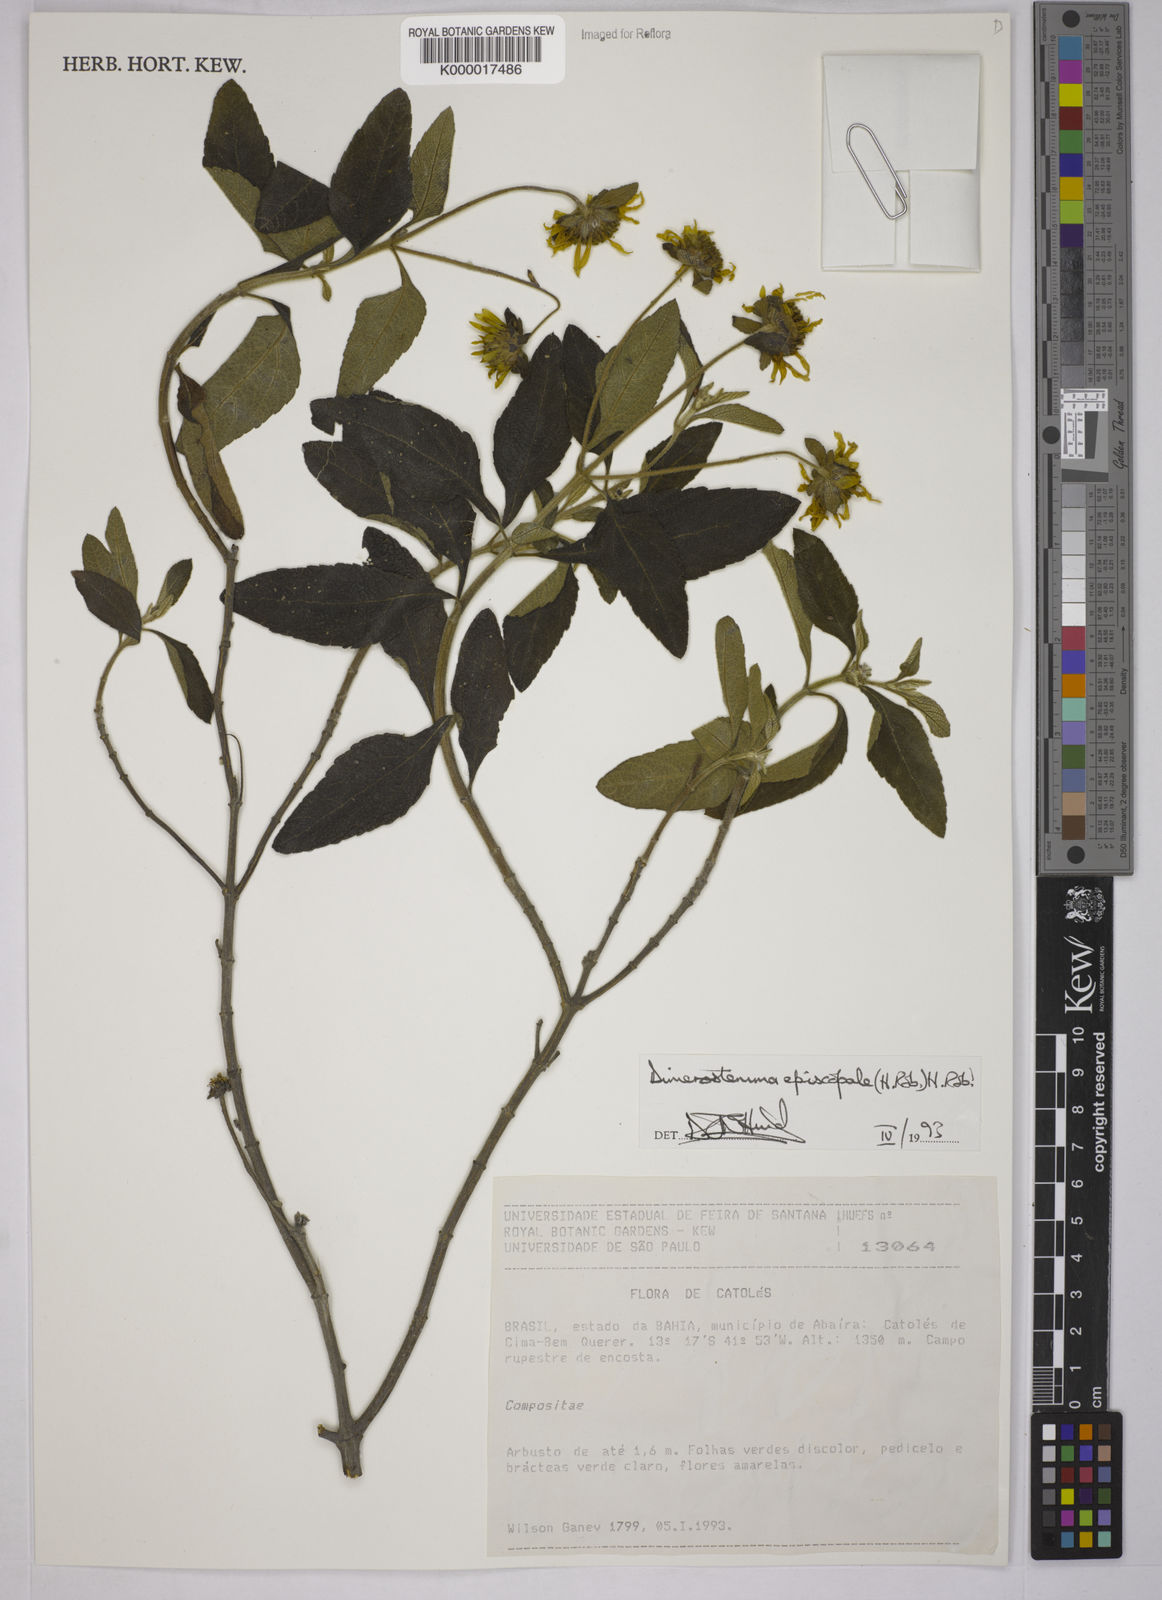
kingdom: Plantae
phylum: Tracheophyta
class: Magnoliopsida
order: Asterales
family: Asteraceae
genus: Dimerostemma
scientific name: Dimerostemma episcopale
